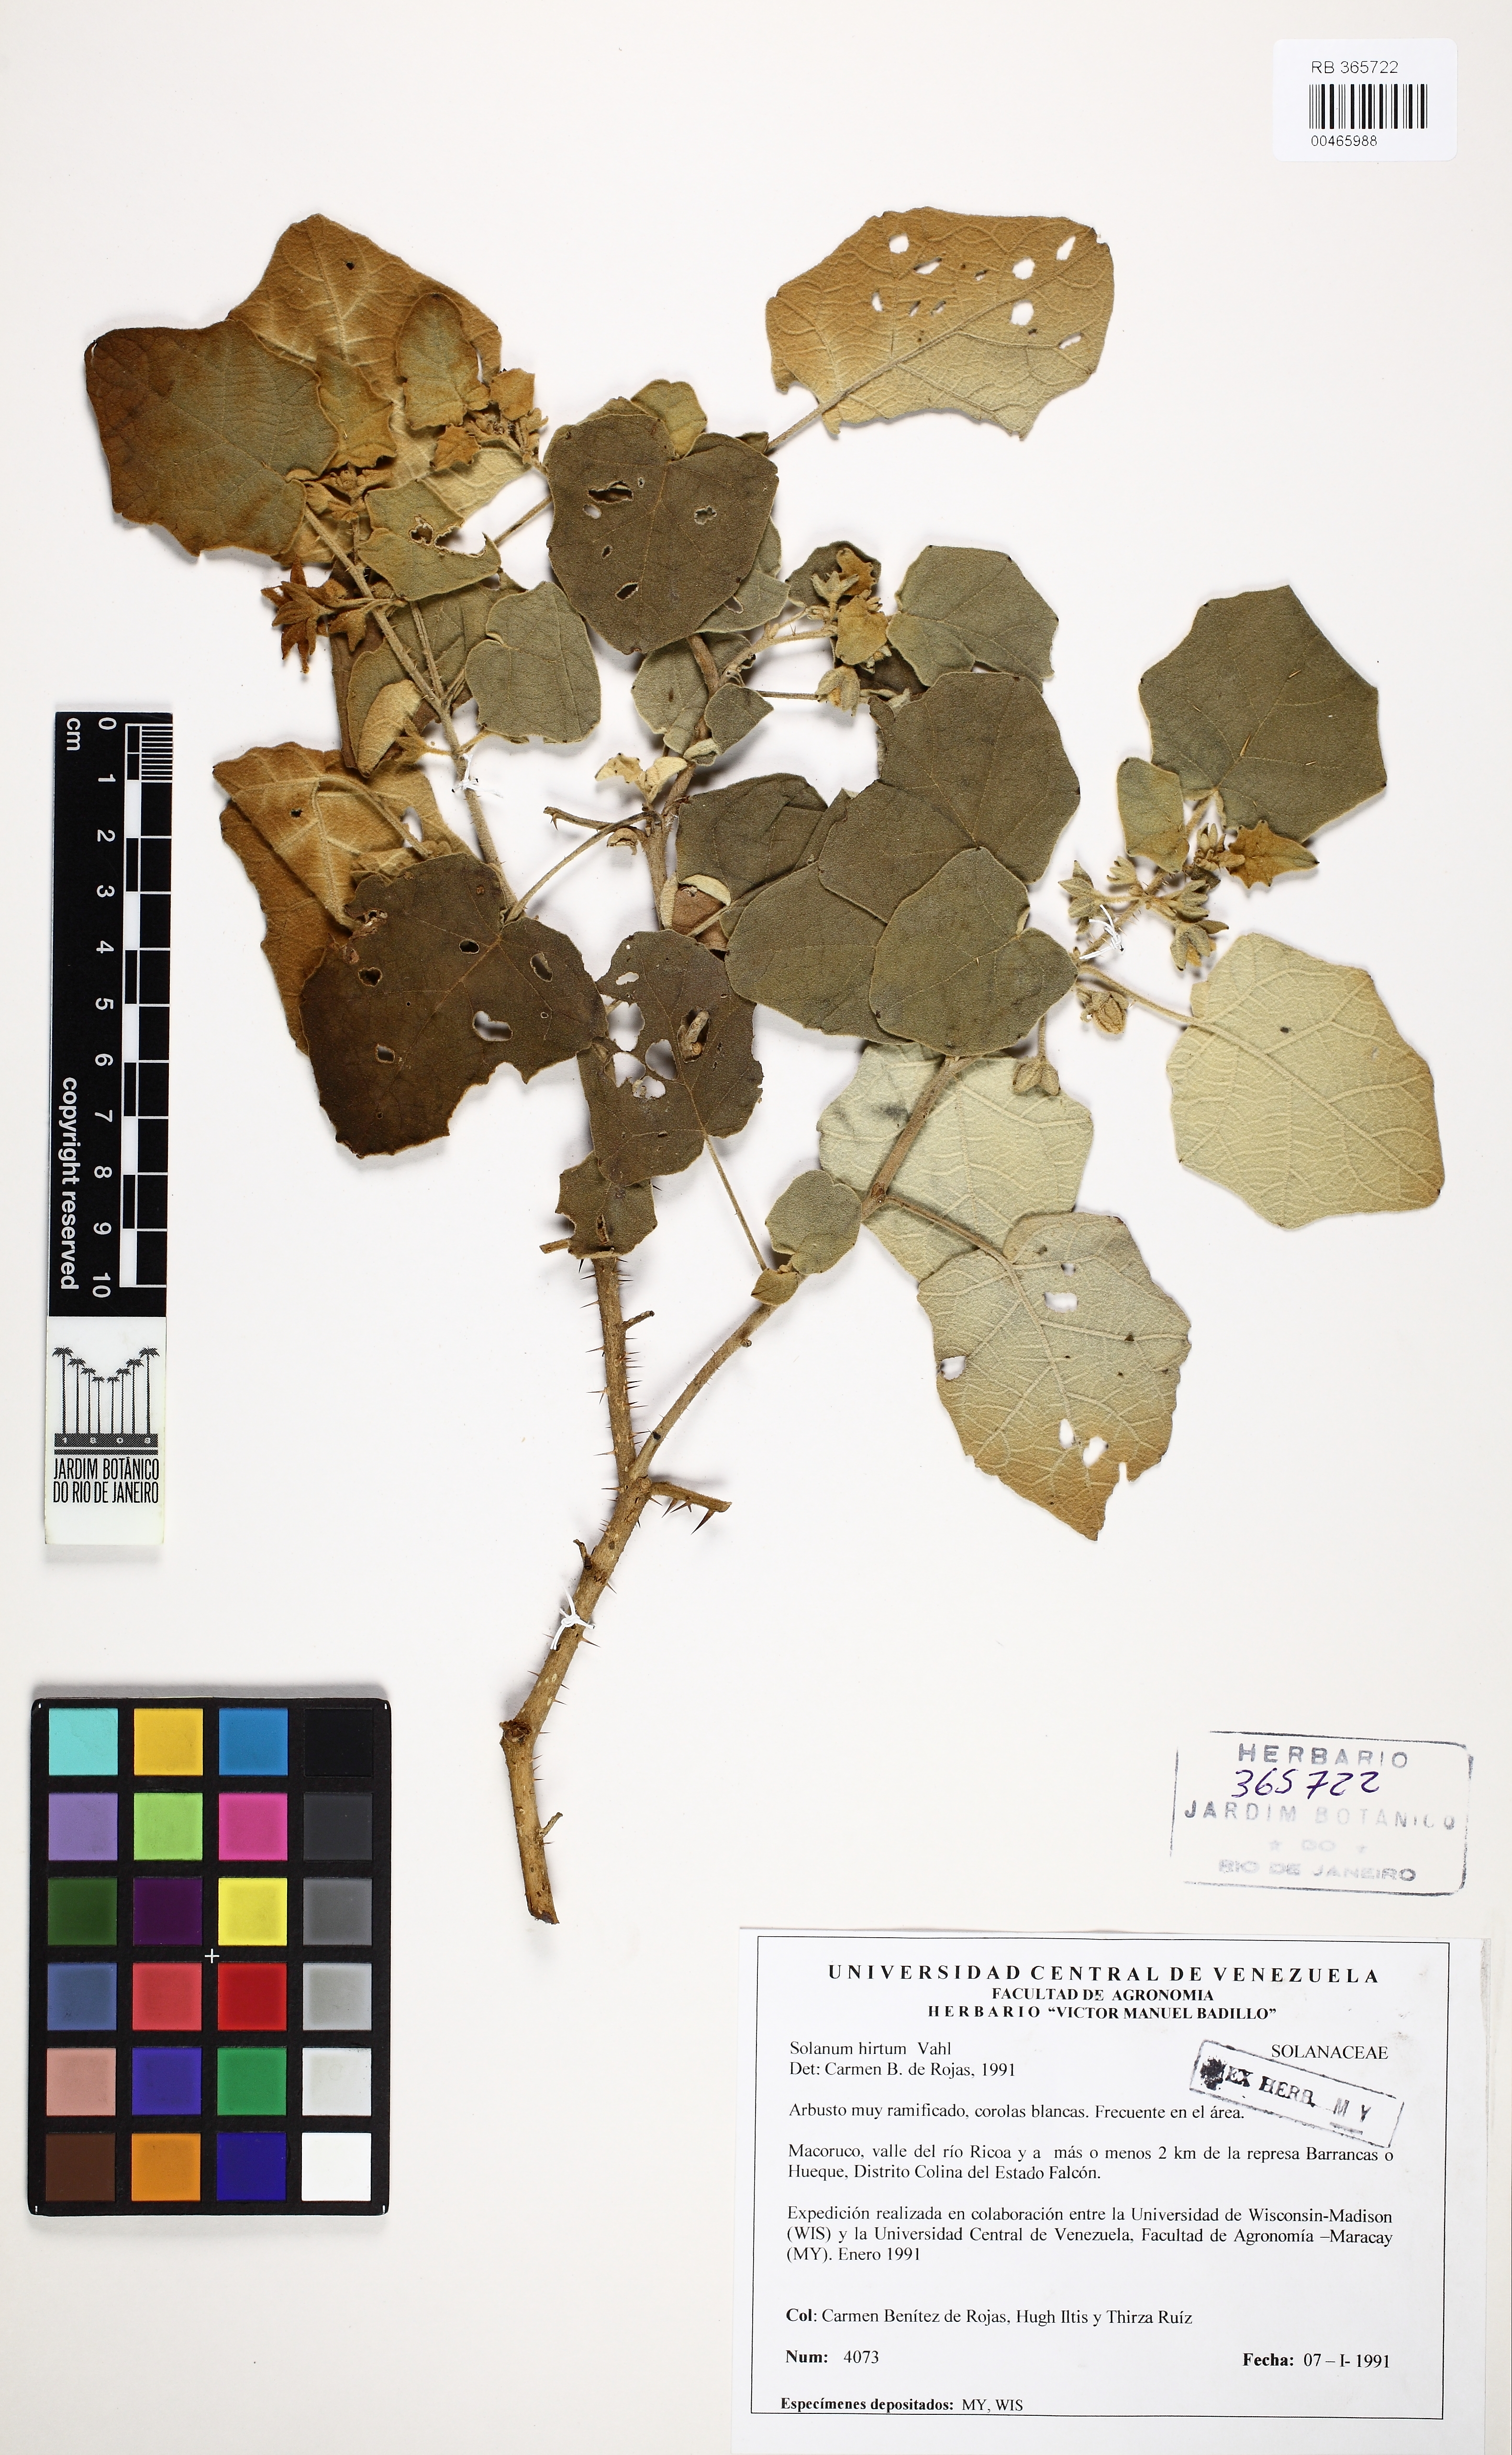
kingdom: Plantae
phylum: Tracheophyta
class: Magnoliopsida
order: Solanales
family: Solanaceae
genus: Solanum
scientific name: Solanum hirtum
